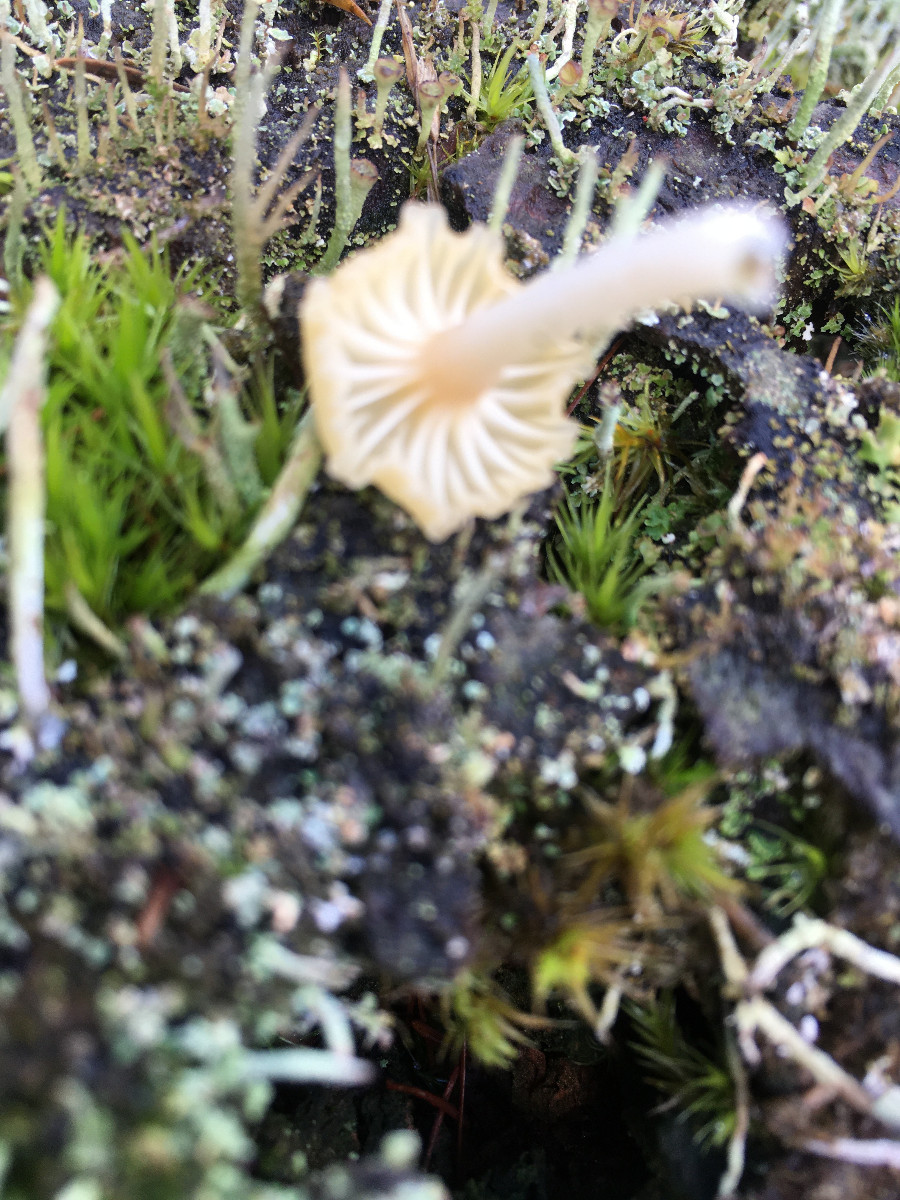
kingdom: Fungi
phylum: Basidiomycota
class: Agaricomycetes
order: Agaricales
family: Hygrophoraceae
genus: Lichenomphalia
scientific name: Lichenomphalia umbellifera
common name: tørve-lavhat
